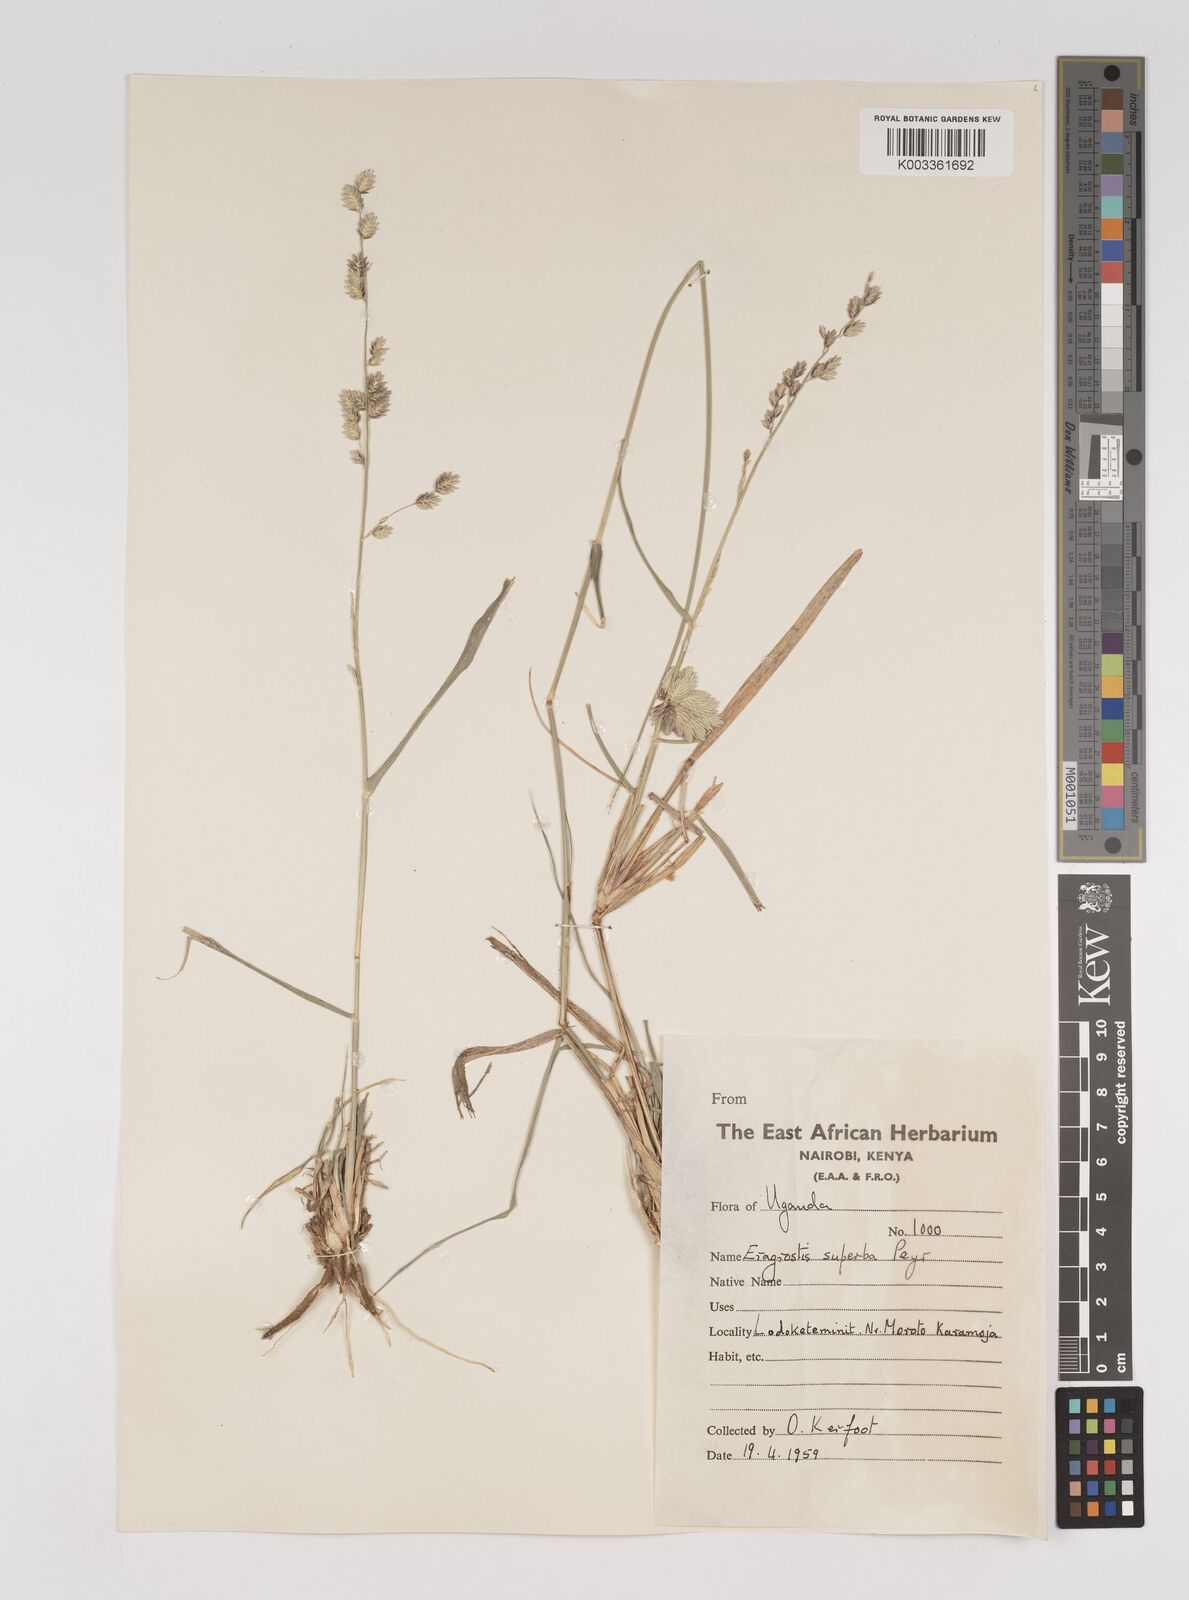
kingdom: Plantae
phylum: Tracheophyta
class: Liliopsida
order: Poales
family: Poaceae
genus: Eragrostis
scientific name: Eragrostis superba
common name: Wilman lovegrass
